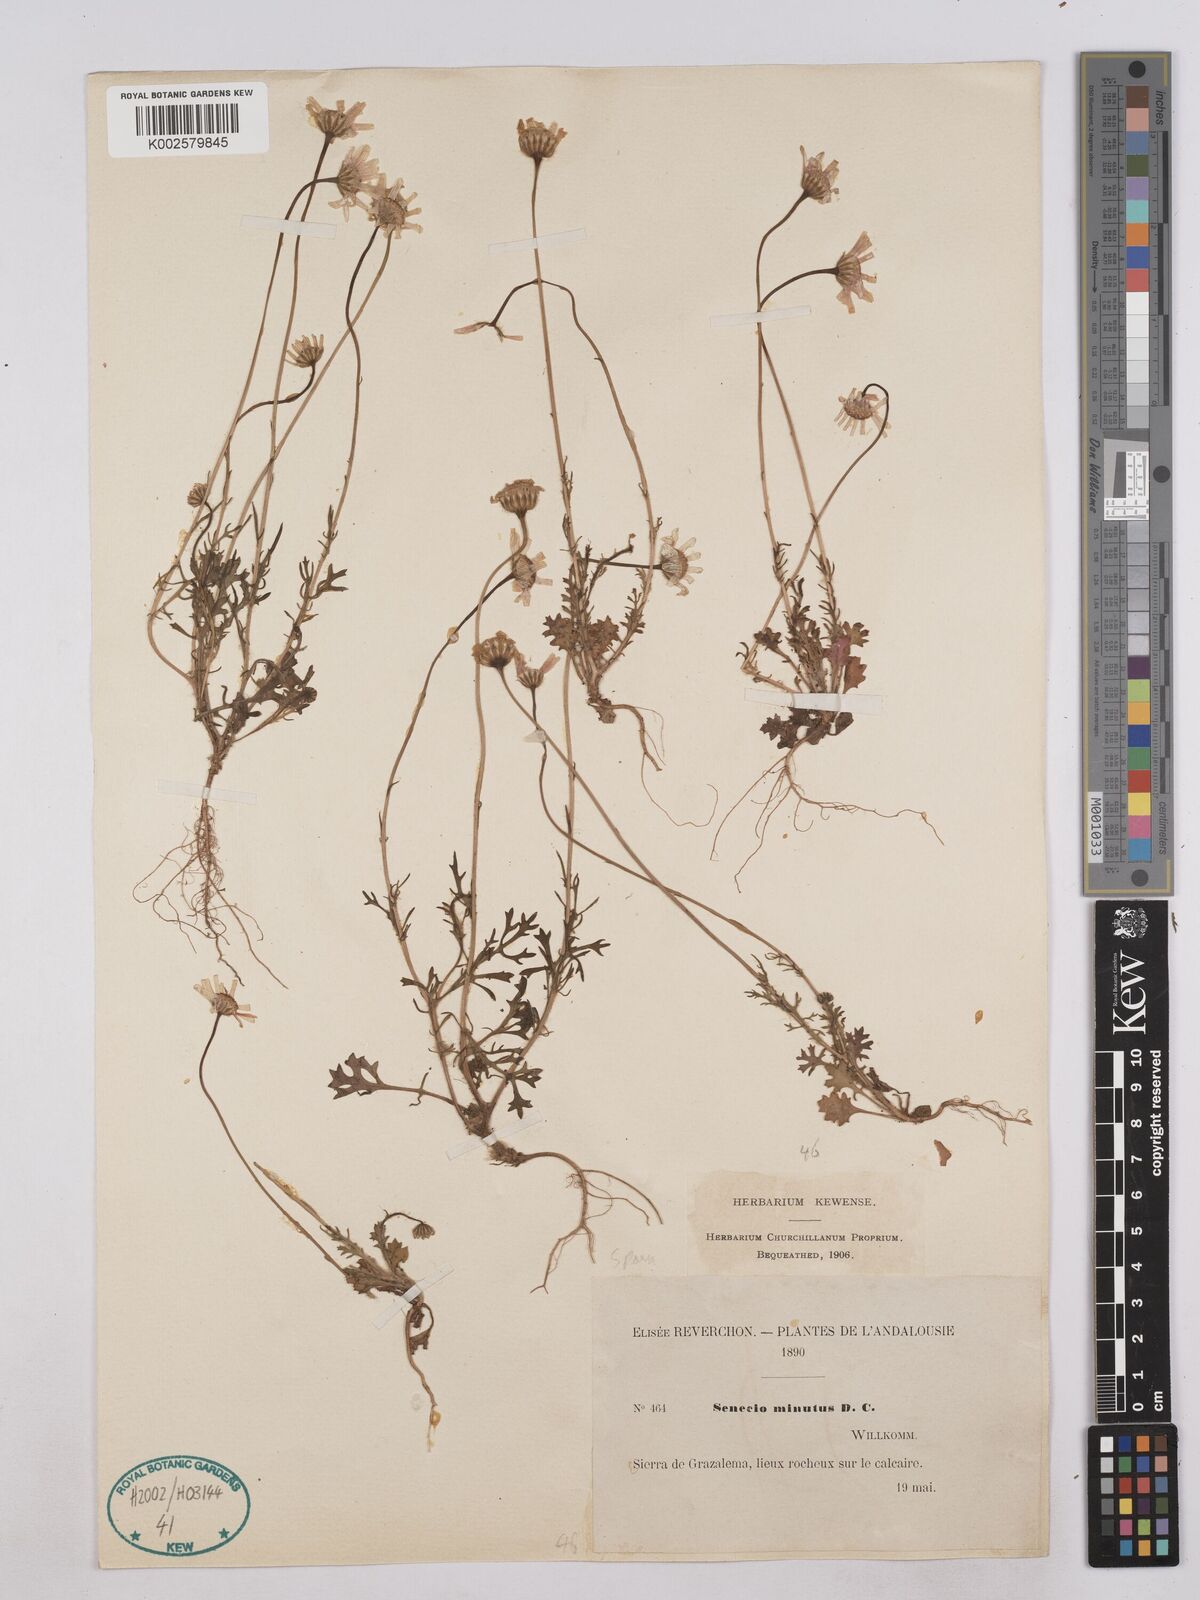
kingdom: Plantae
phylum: Tracheophyta
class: Magnoliopsida
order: Asterales
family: Asteraceae
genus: Jacobaea
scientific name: Jacobaea minuta
